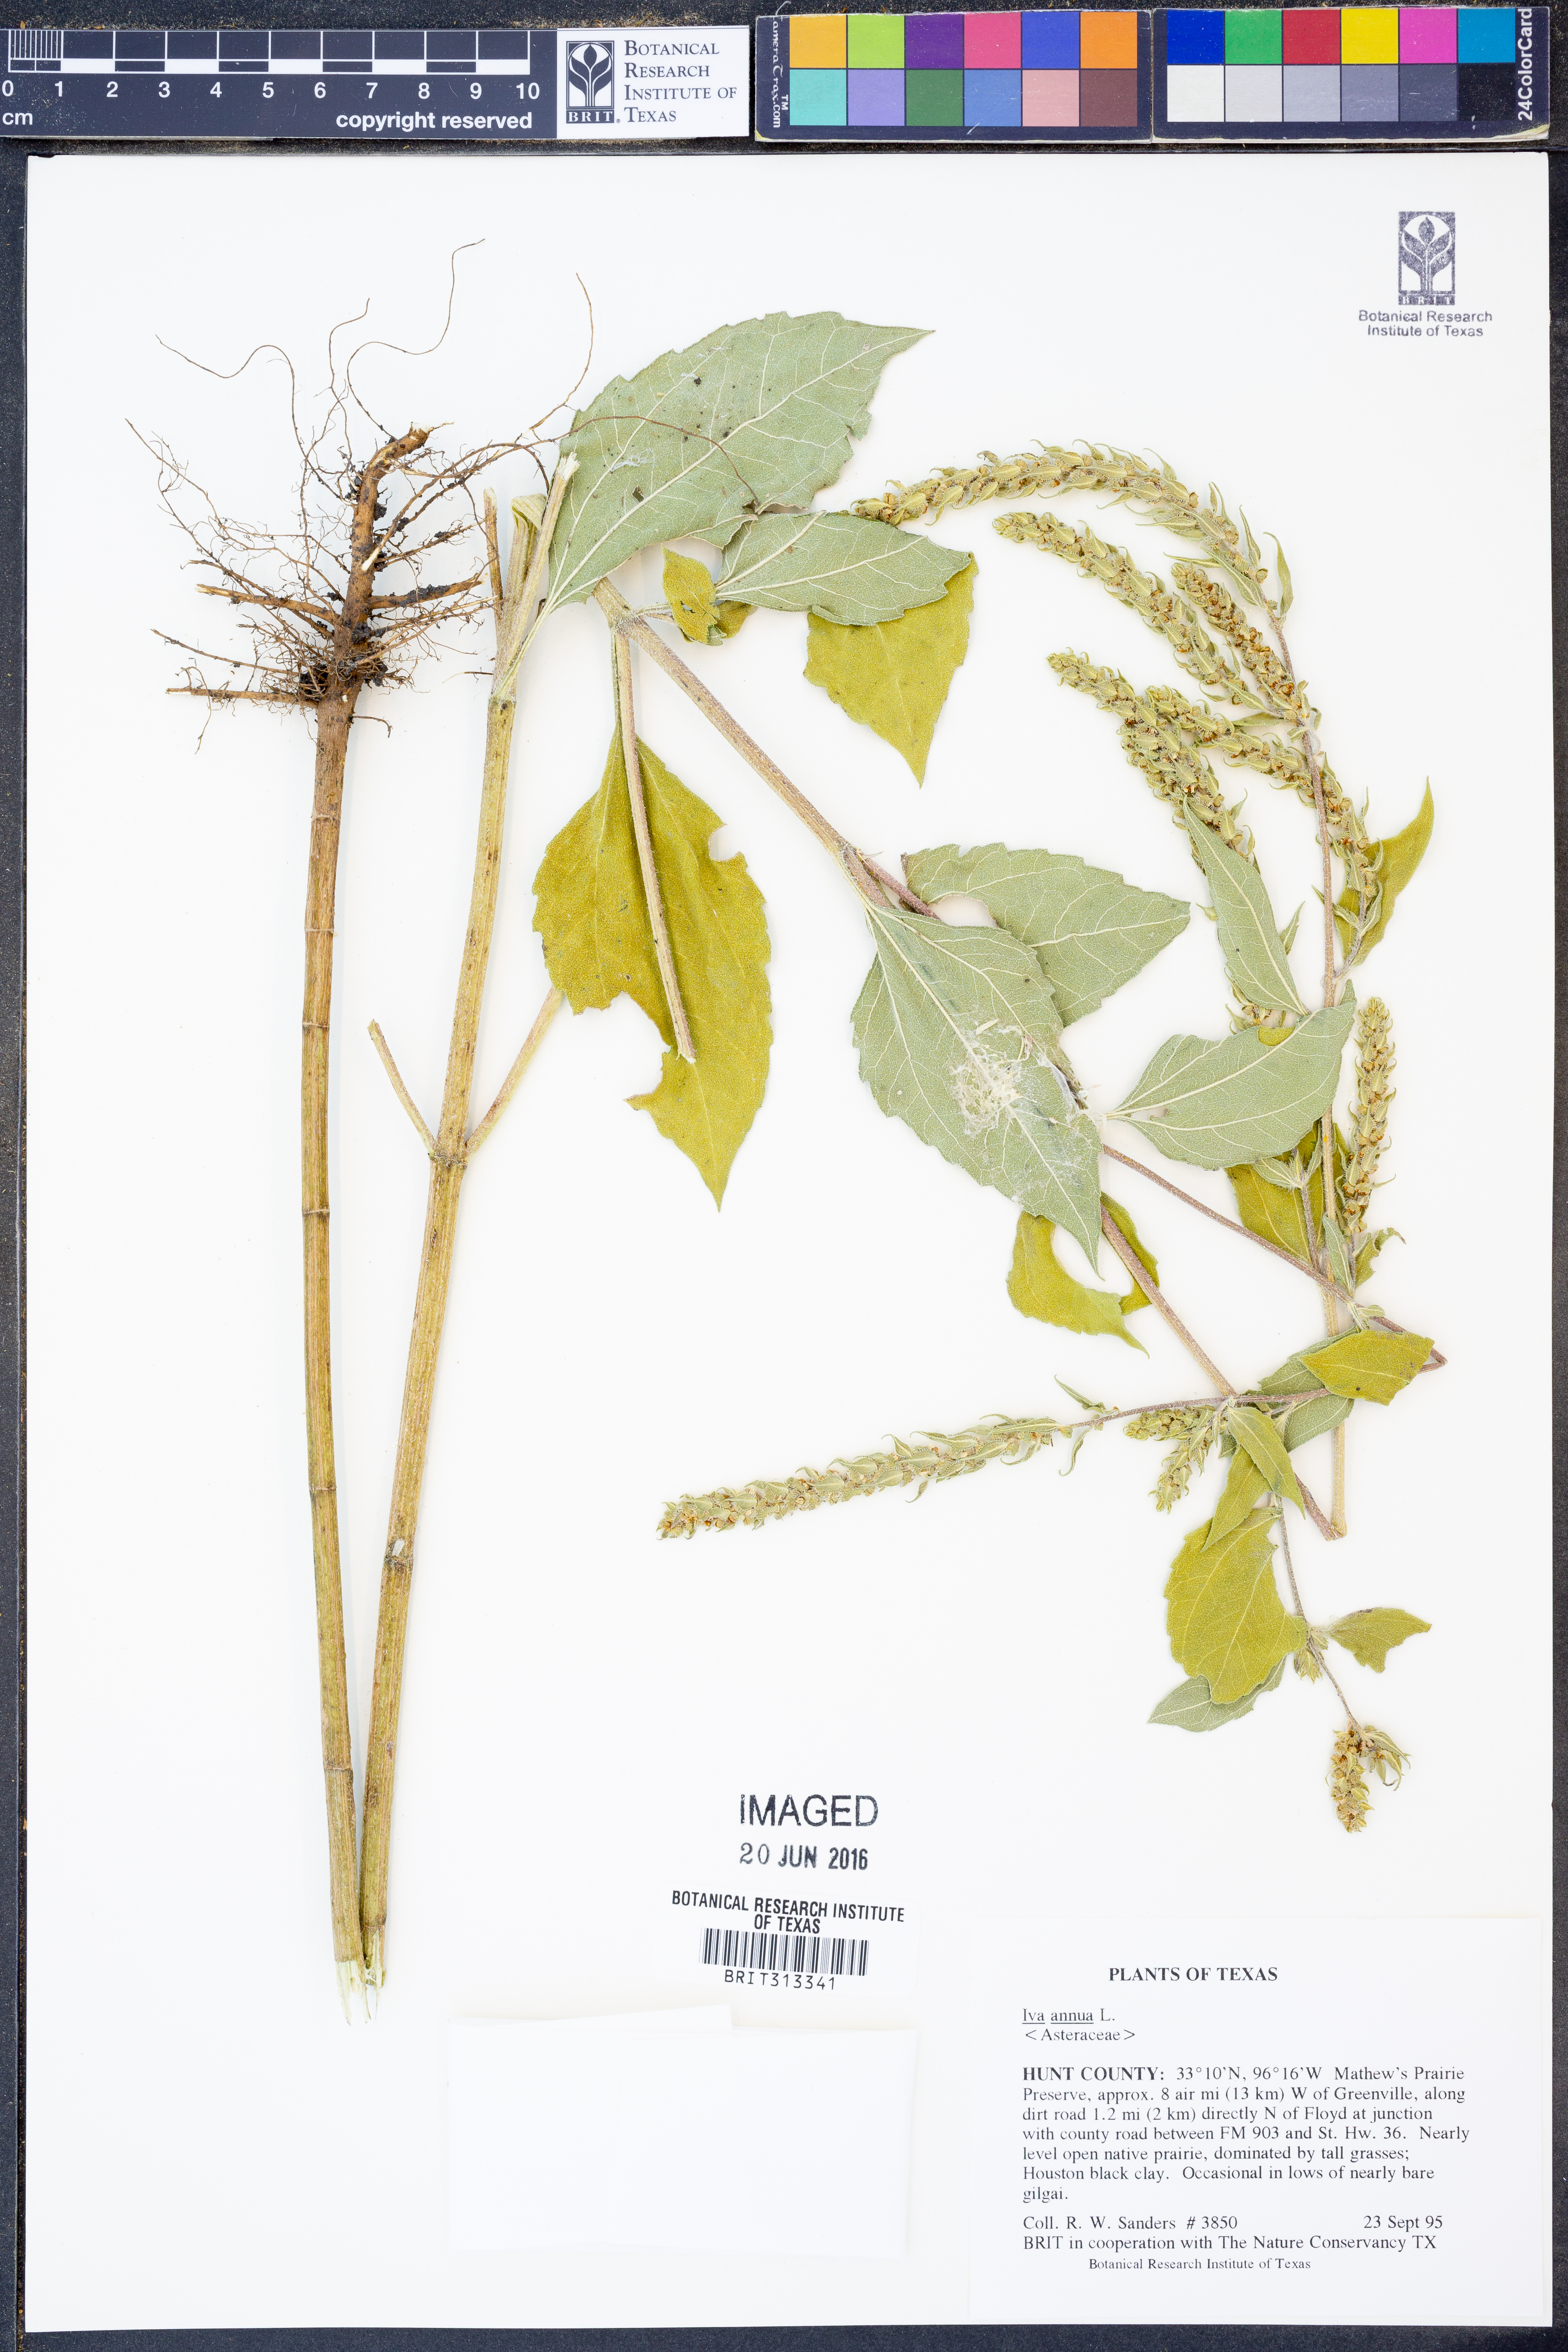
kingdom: Plantae
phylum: Tracheophyta
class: Magnoliopsida
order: Asterales
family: Asteraceae
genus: Iva
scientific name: Iva annua
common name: Marsh-elder
